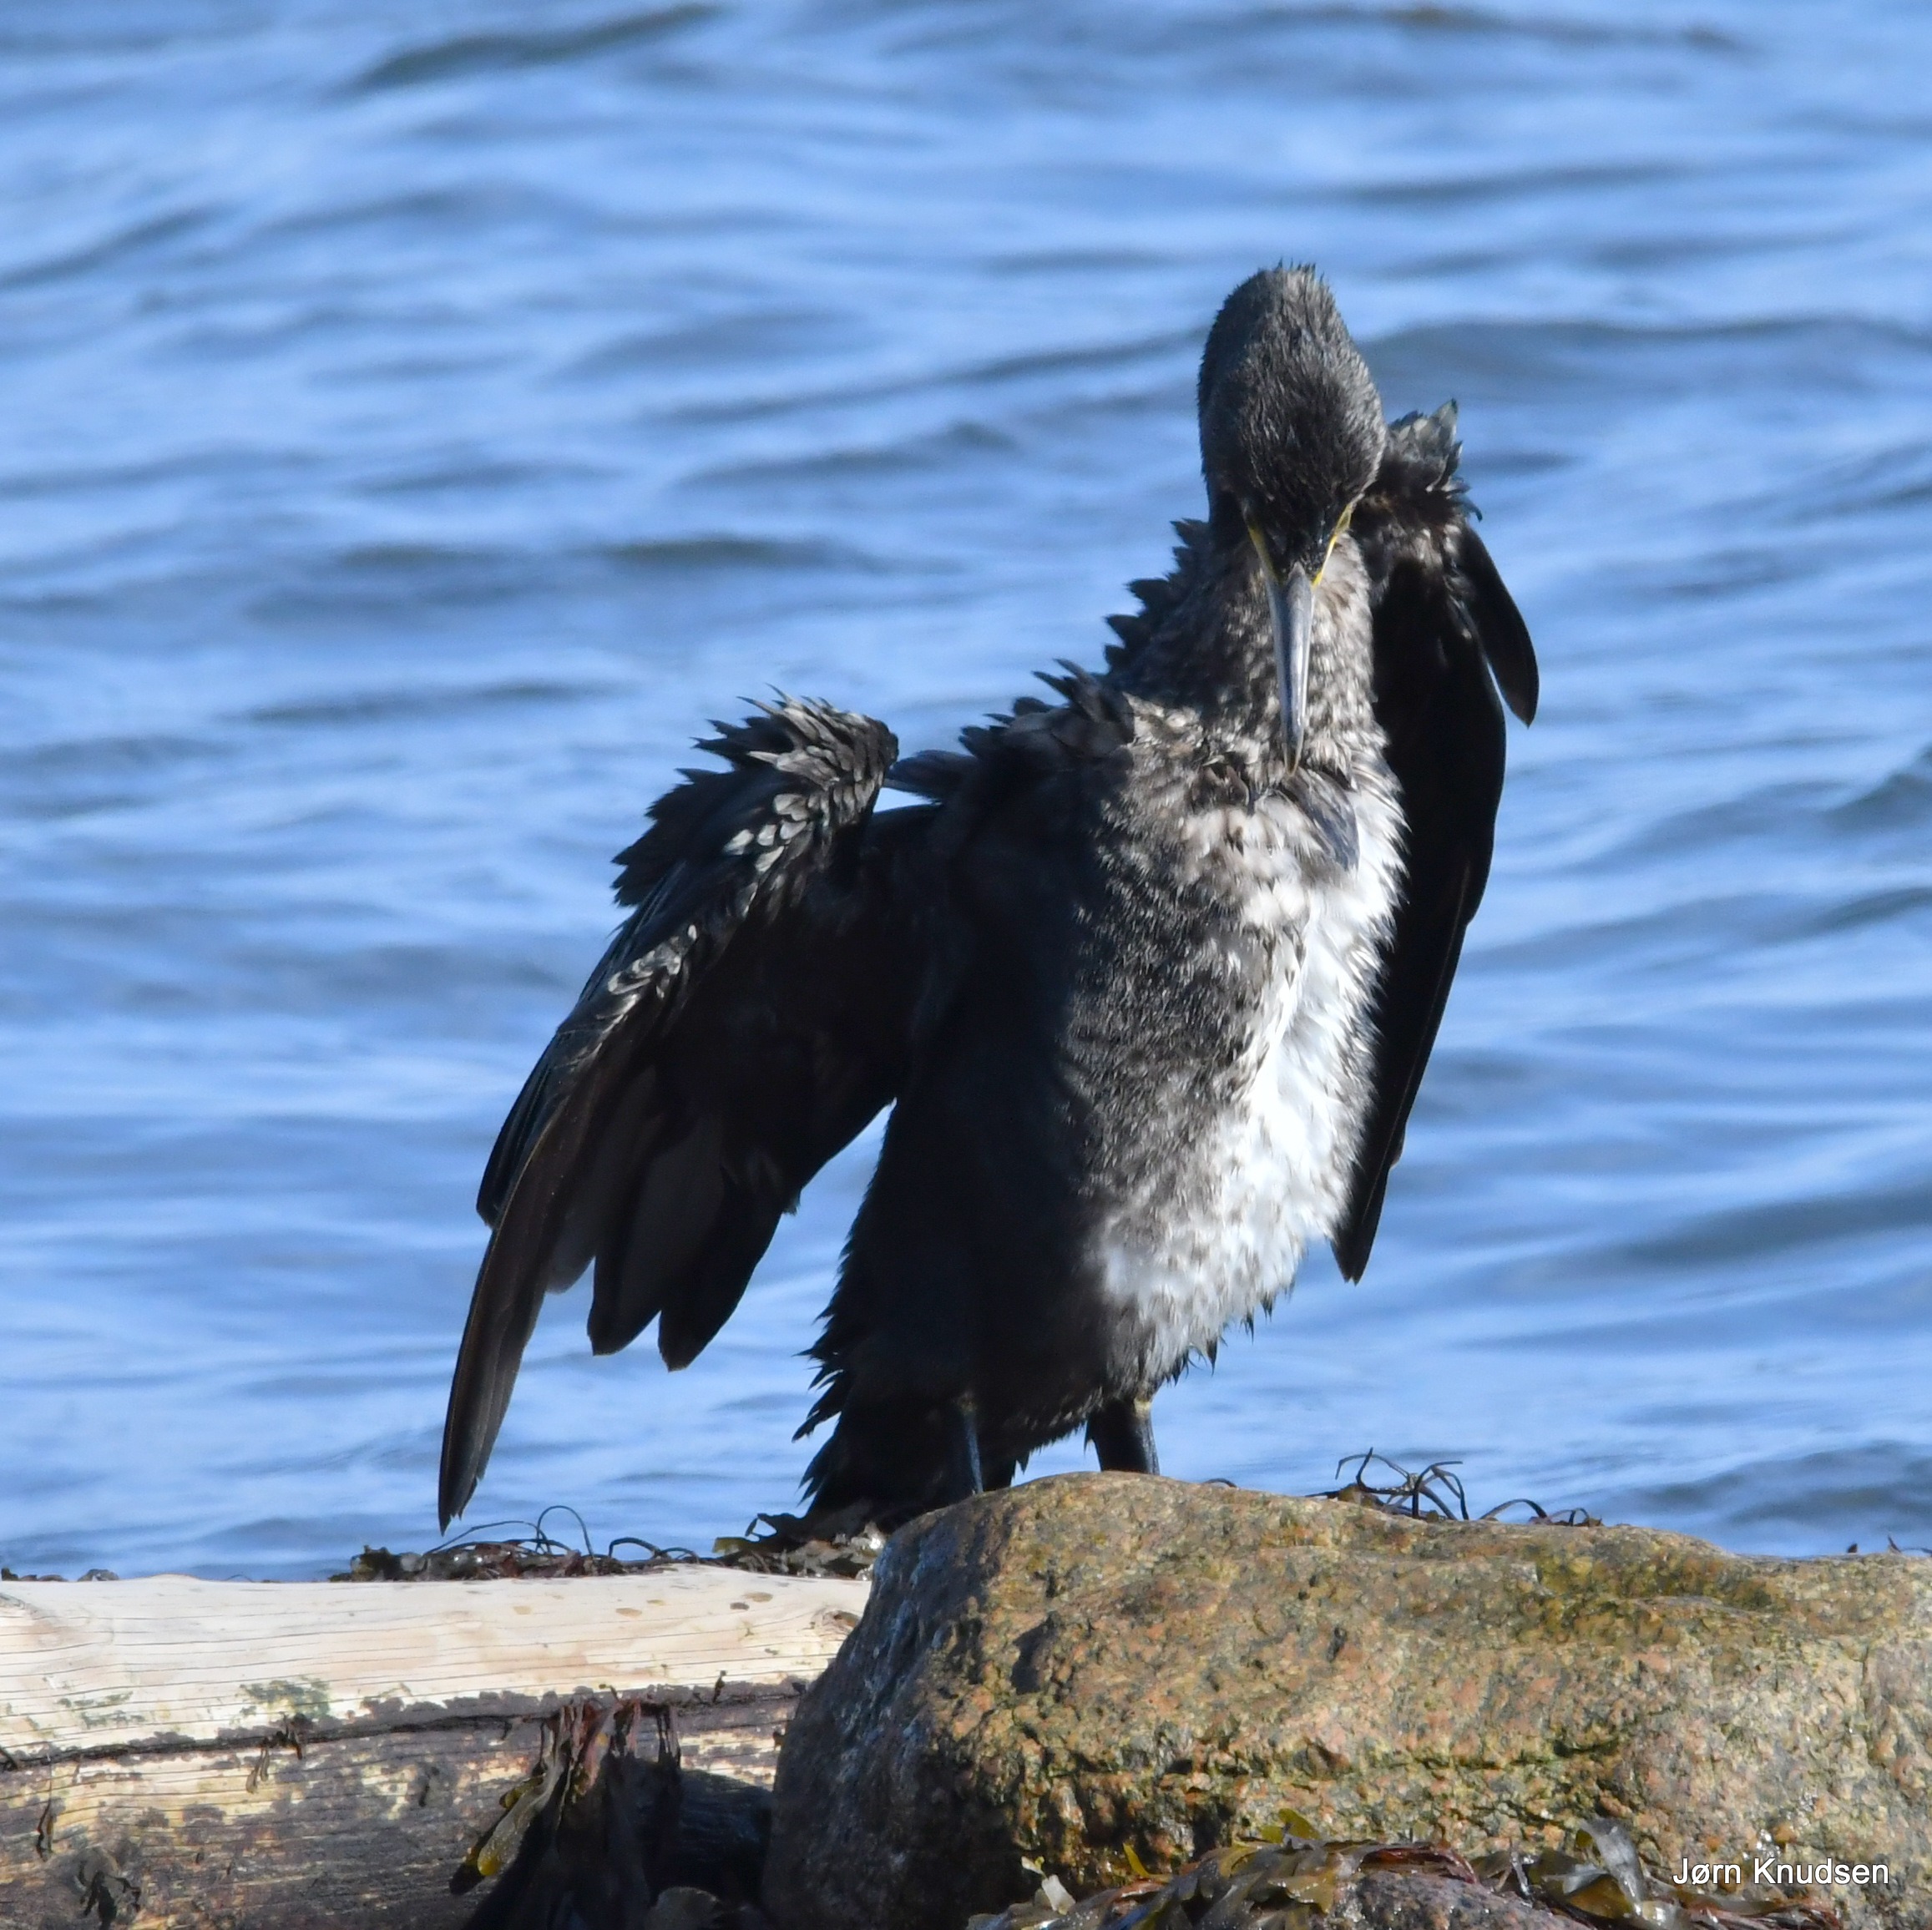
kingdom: Animalia
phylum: Chordata
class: Aves
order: Suliformes
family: Phalacrocoracidae
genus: Phalacrocorax
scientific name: Phalacrocorax carbo
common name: Skarv
